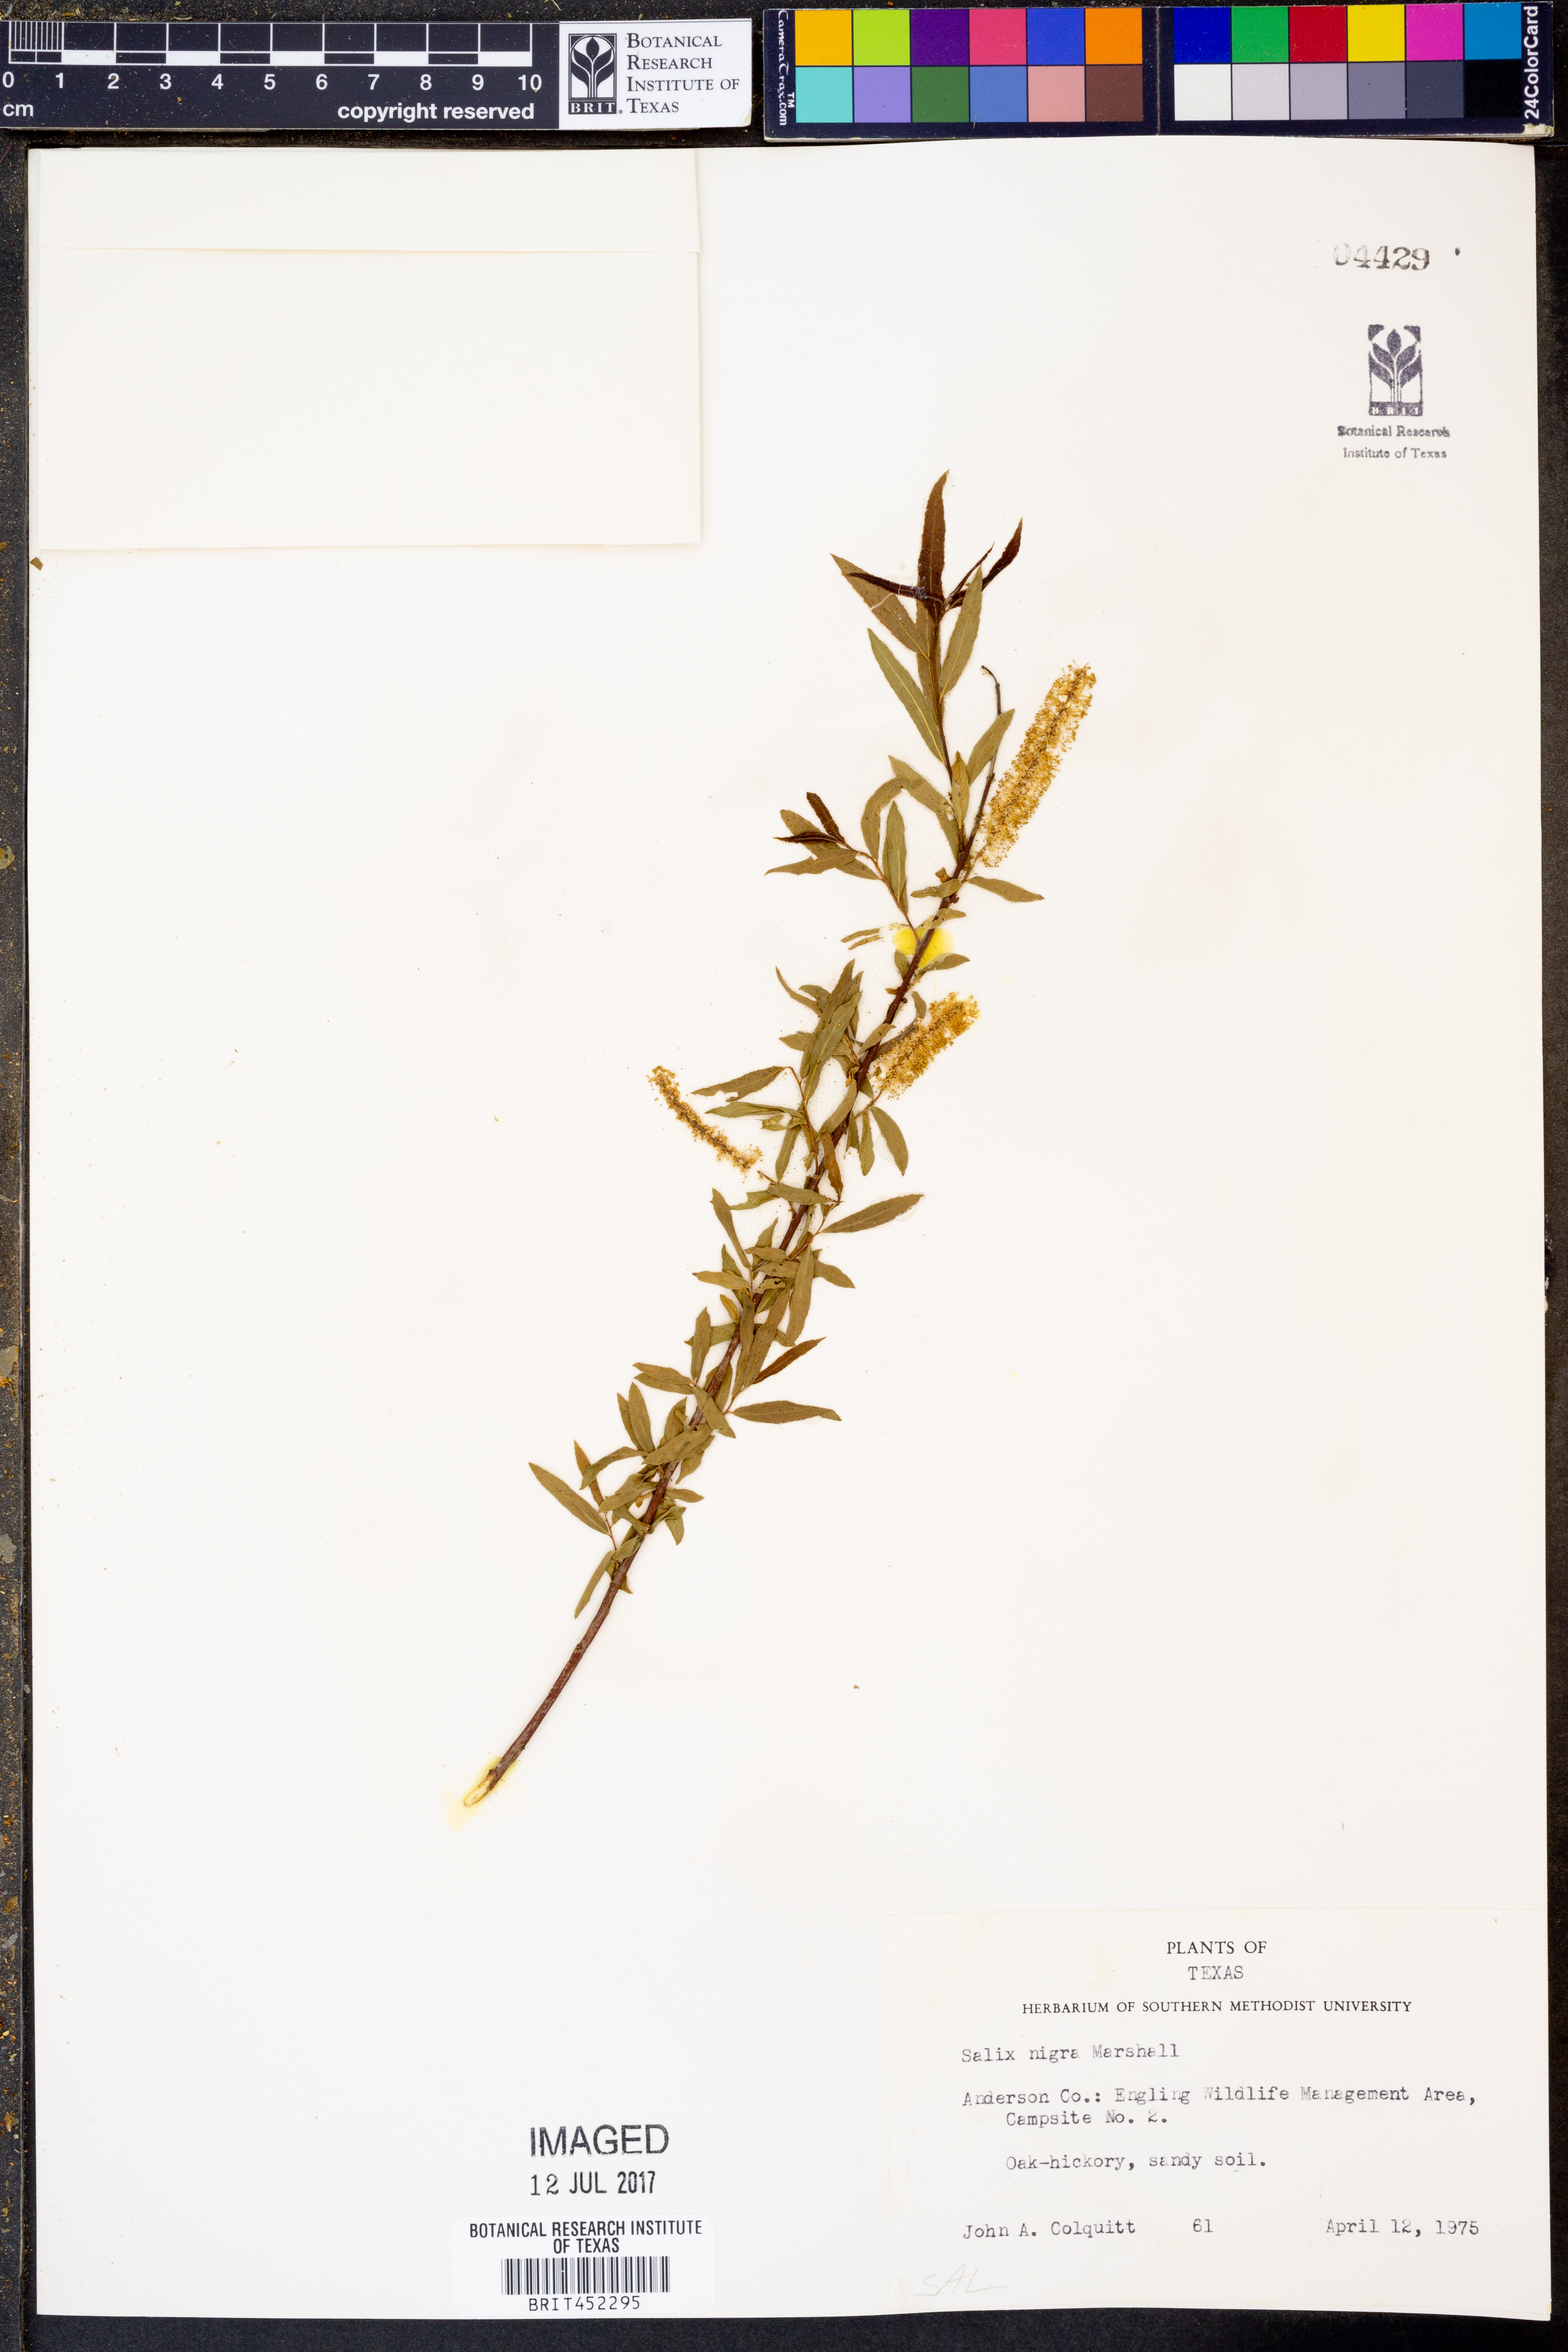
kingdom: Plantae
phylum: Tracheophyta
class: Magnoliopsida
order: Malpighiales
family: Salicaceae
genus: Salix
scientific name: Salix nigra
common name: Black willow
